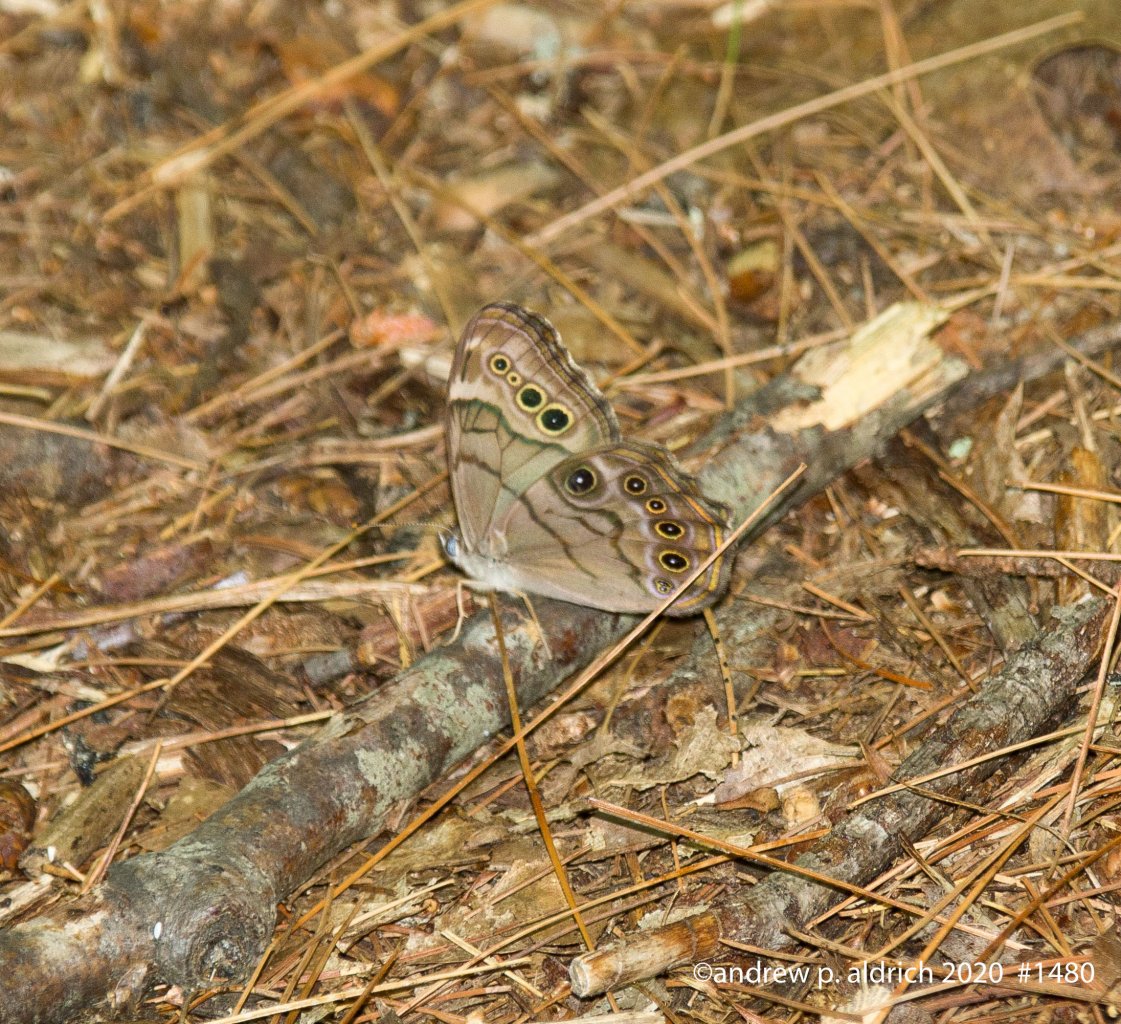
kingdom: Animalia
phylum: Arthropoda
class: Insecta
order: Lepidoptera
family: Nymphalidae
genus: Lethe
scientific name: Lethe anthedon
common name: Northern Pearly-Eye
